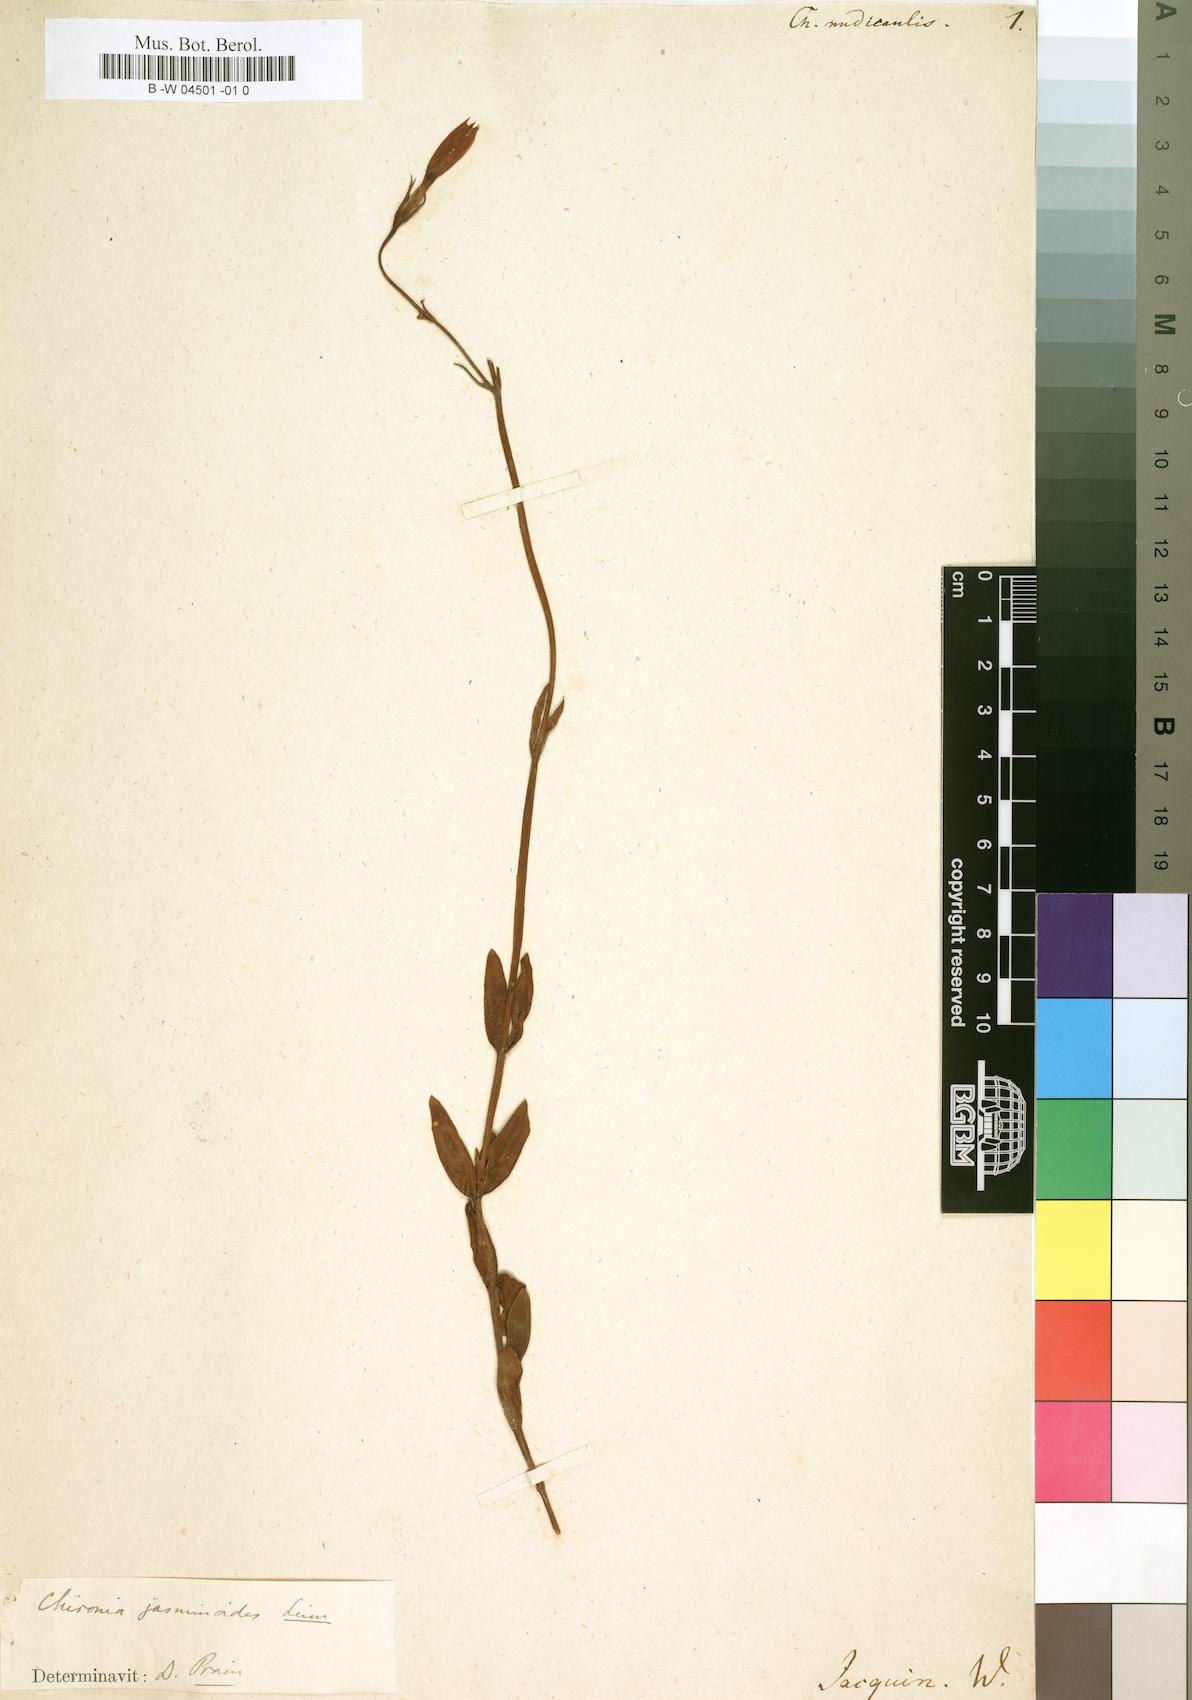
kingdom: Plantae
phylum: Tracheophyta
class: Magnoliopsida
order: Gentianales
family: Gentianaceae
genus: Chironia
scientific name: Chironia jasminoides
